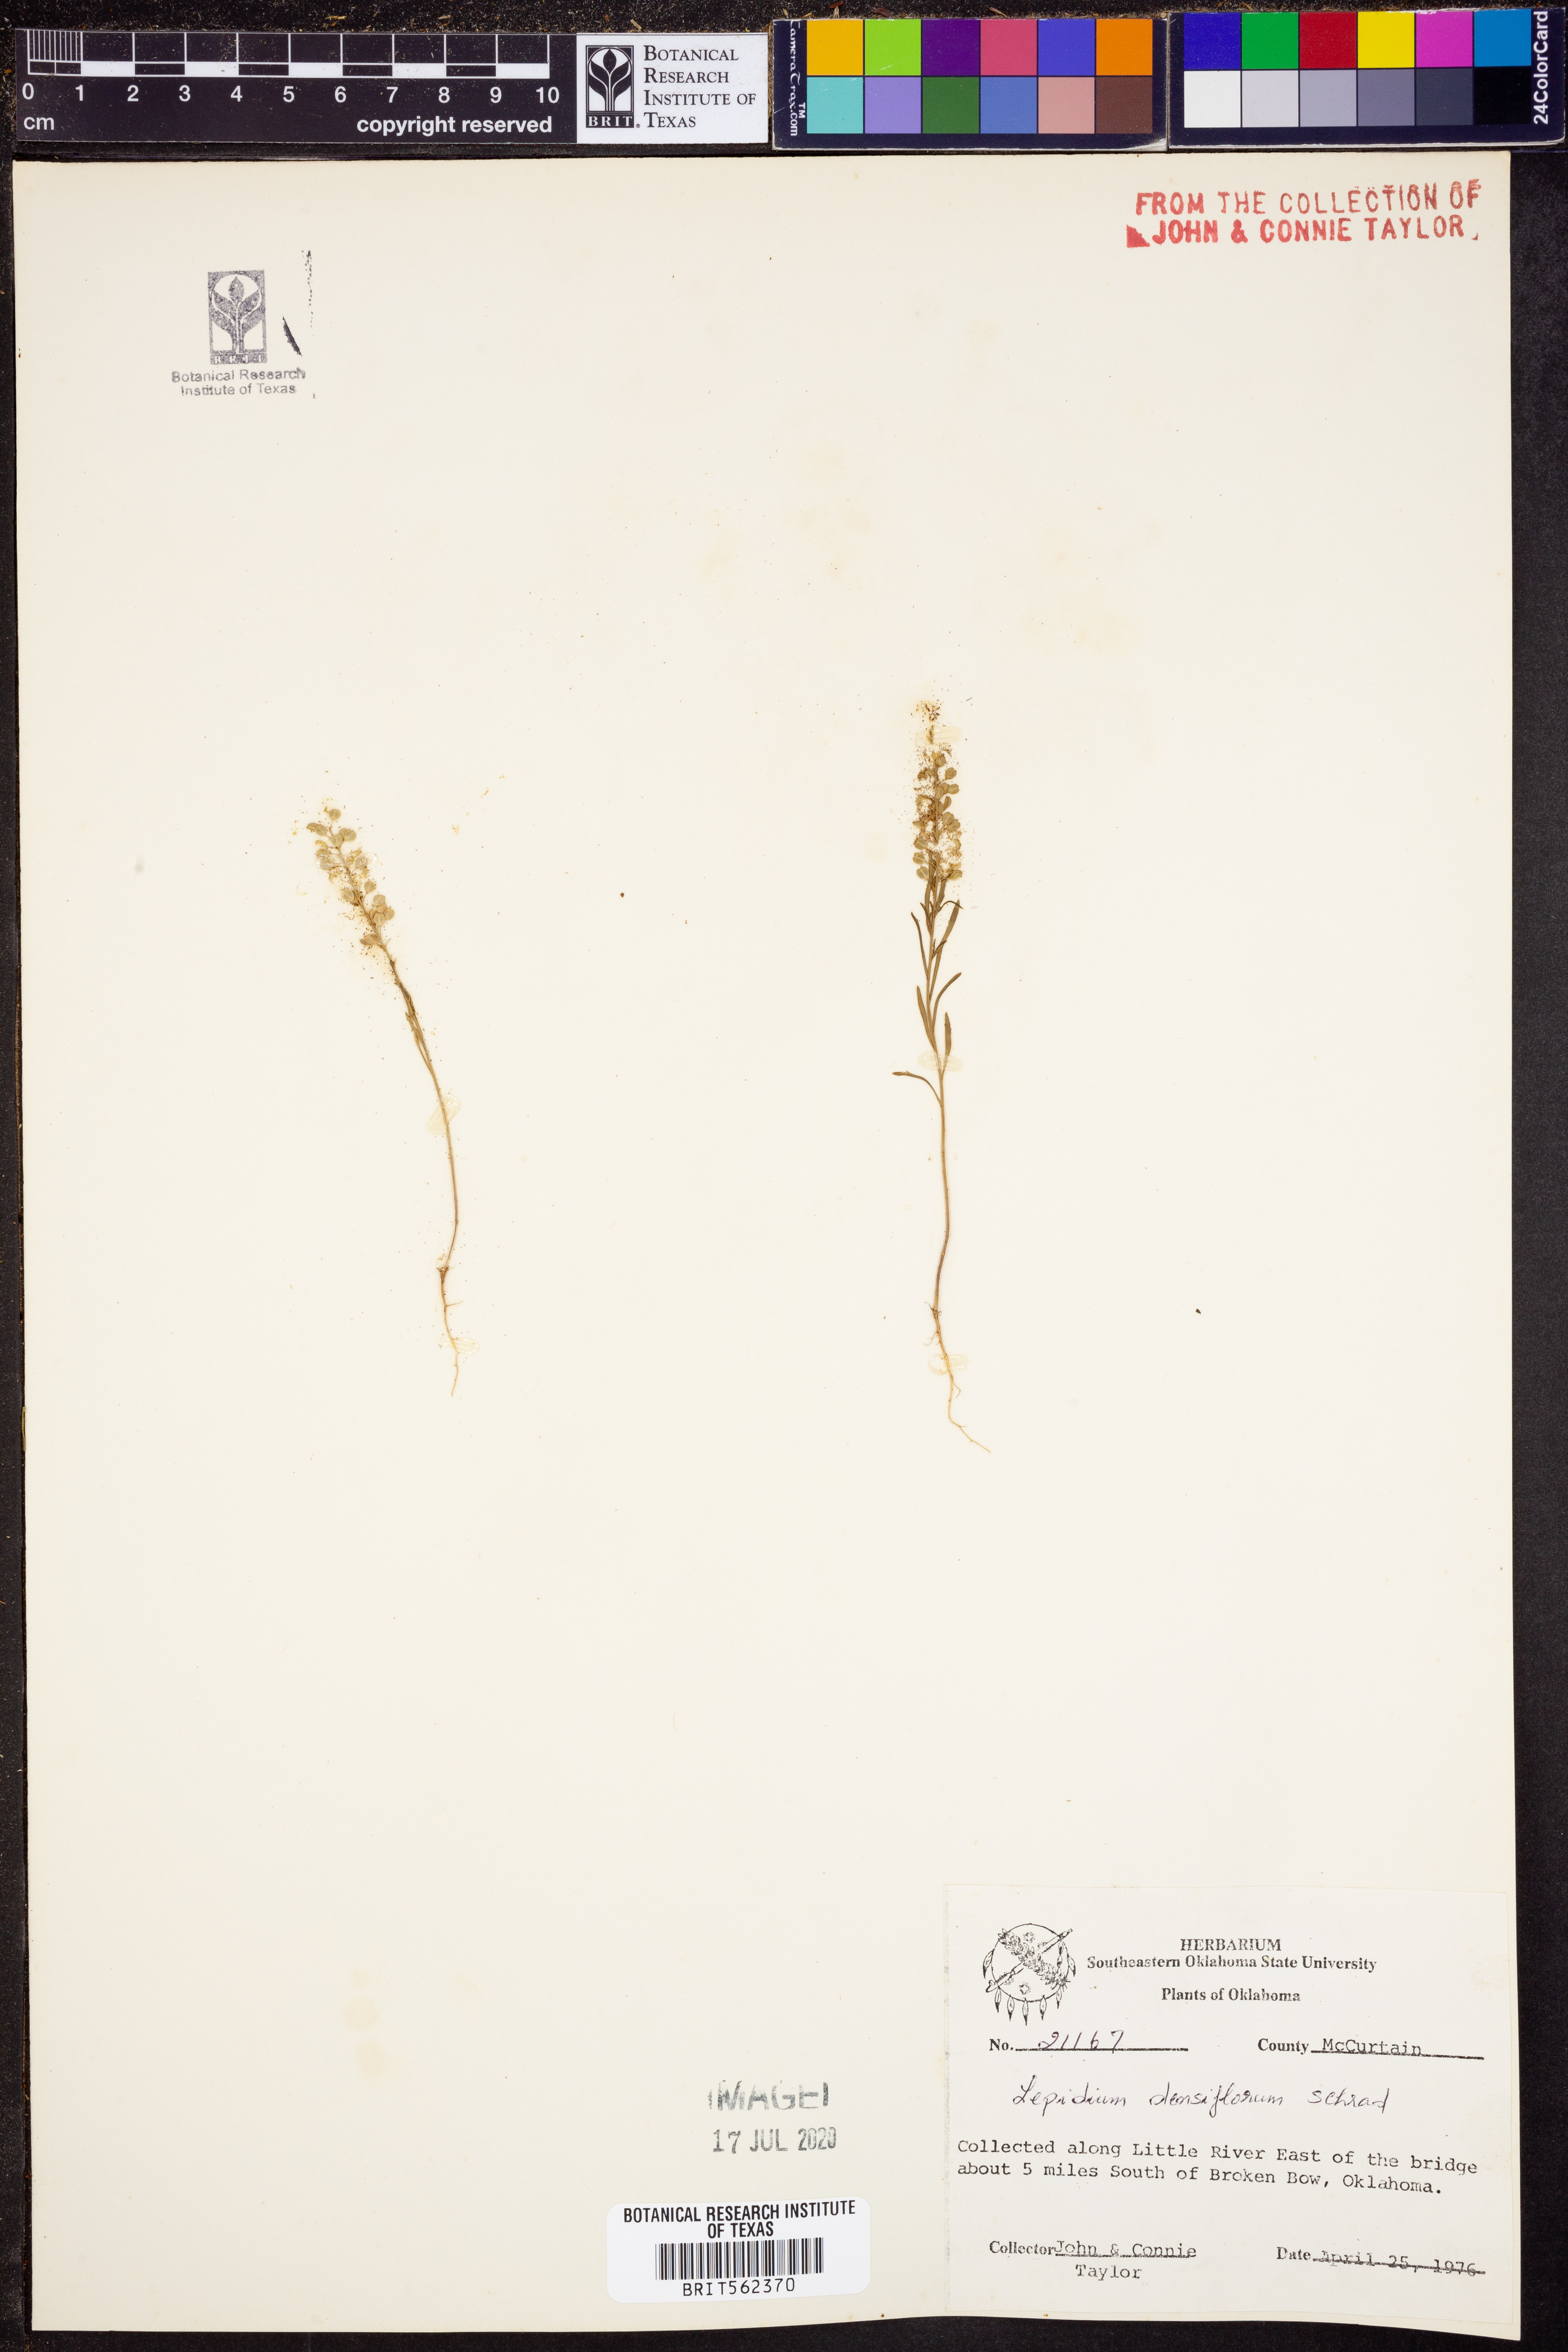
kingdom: Plantae
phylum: Tracheophyta
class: Magnoliopsida
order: Brassicales
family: Brassicaceae
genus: Lepidium
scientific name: Lepidium densiflorum
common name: Miner's pepperwort
